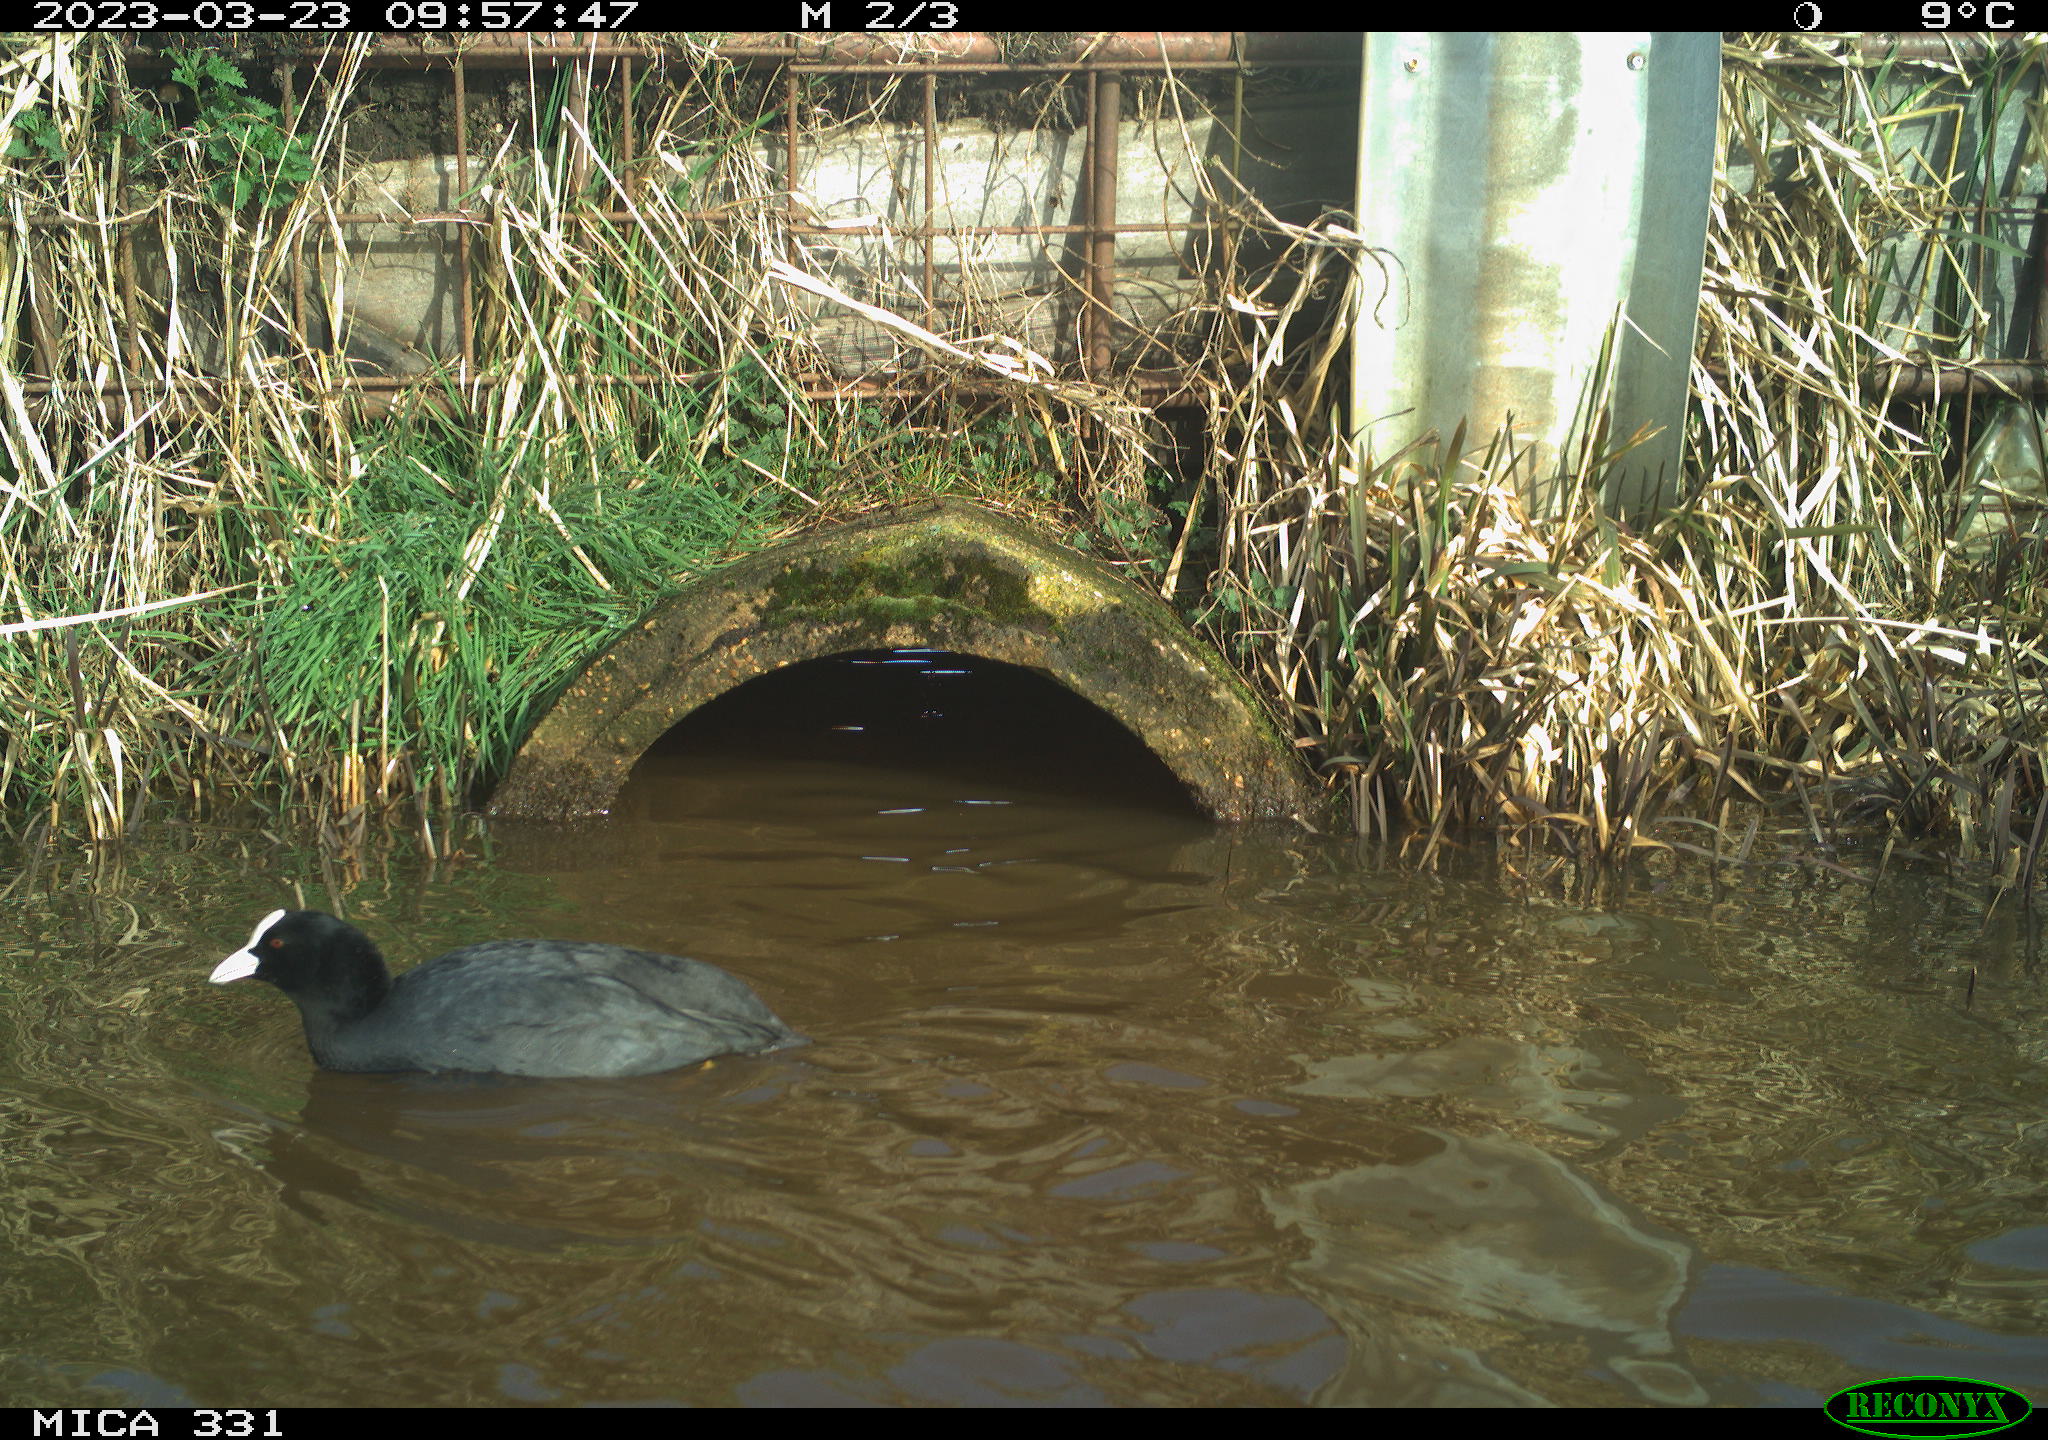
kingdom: Animalia
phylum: Chordata
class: Aves
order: Gruiformes
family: Rallidae
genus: Fulica
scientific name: Fulica atra
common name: Eurasian coot
